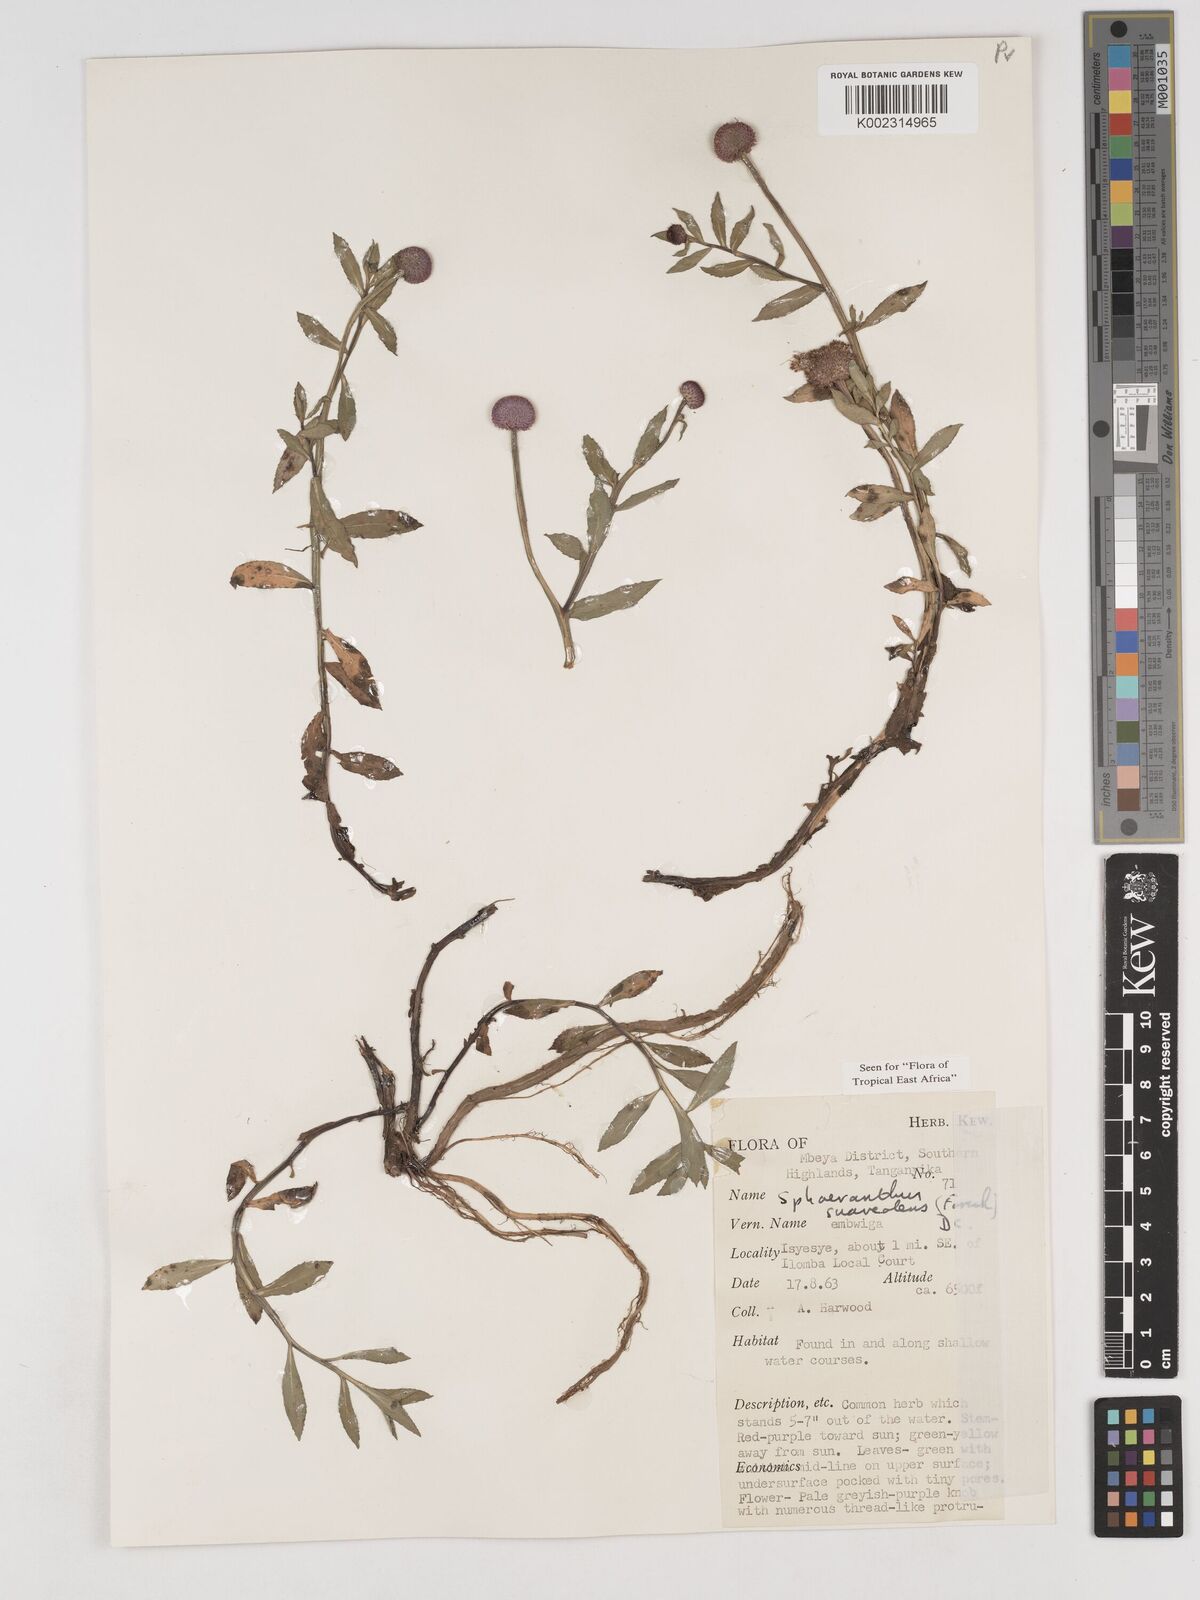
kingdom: Plantae
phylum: Tracheophyta
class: Magnoliopsida
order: Asterales
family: Asteraceae
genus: Sphaeranthus
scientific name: Sphaeranthus suaveolens
